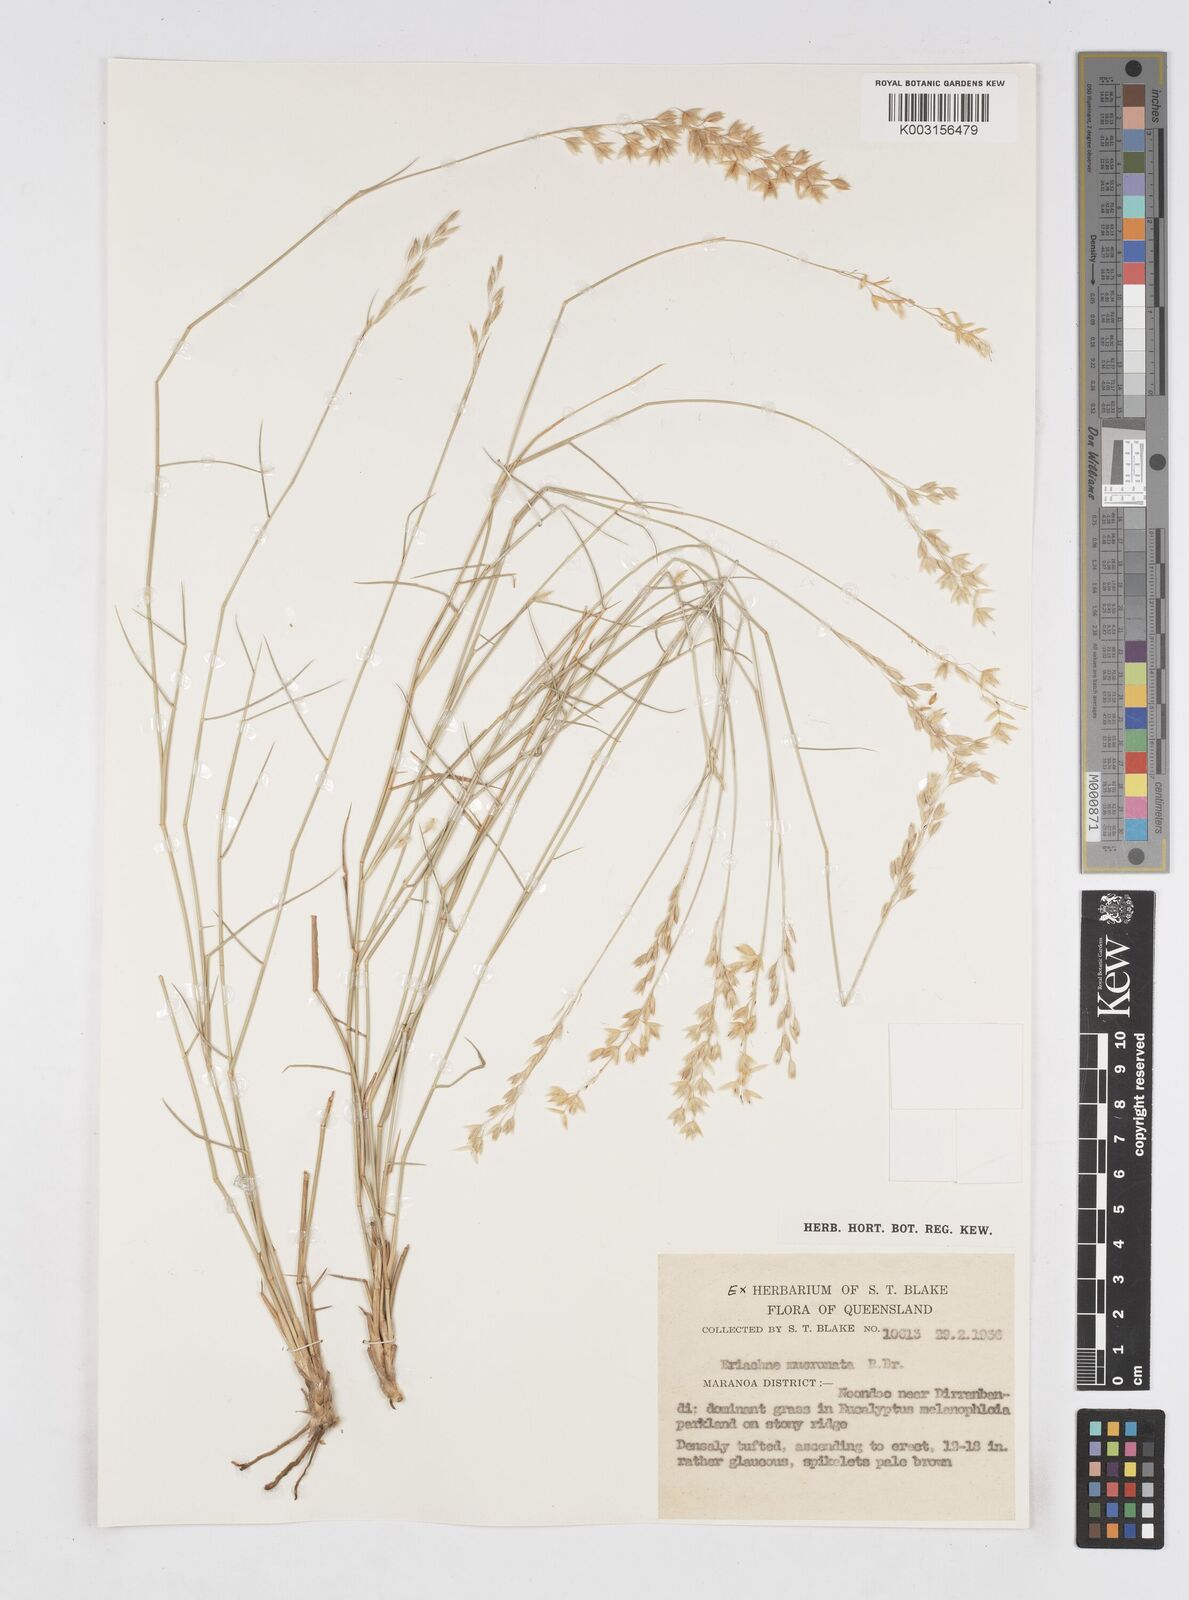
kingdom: Plantae
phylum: Tracheophyta
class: Liliopsida
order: Poales
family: Poaceae
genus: Eriachne
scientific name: Eriachne mucronata
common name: Mountain wanderrie grass
